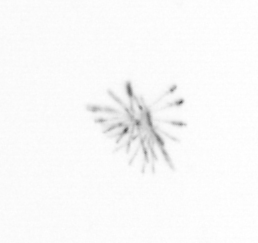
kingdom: Chromista
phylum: Ochrophyta
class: Bacillariophyceae
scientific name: Bacillariophyceae
